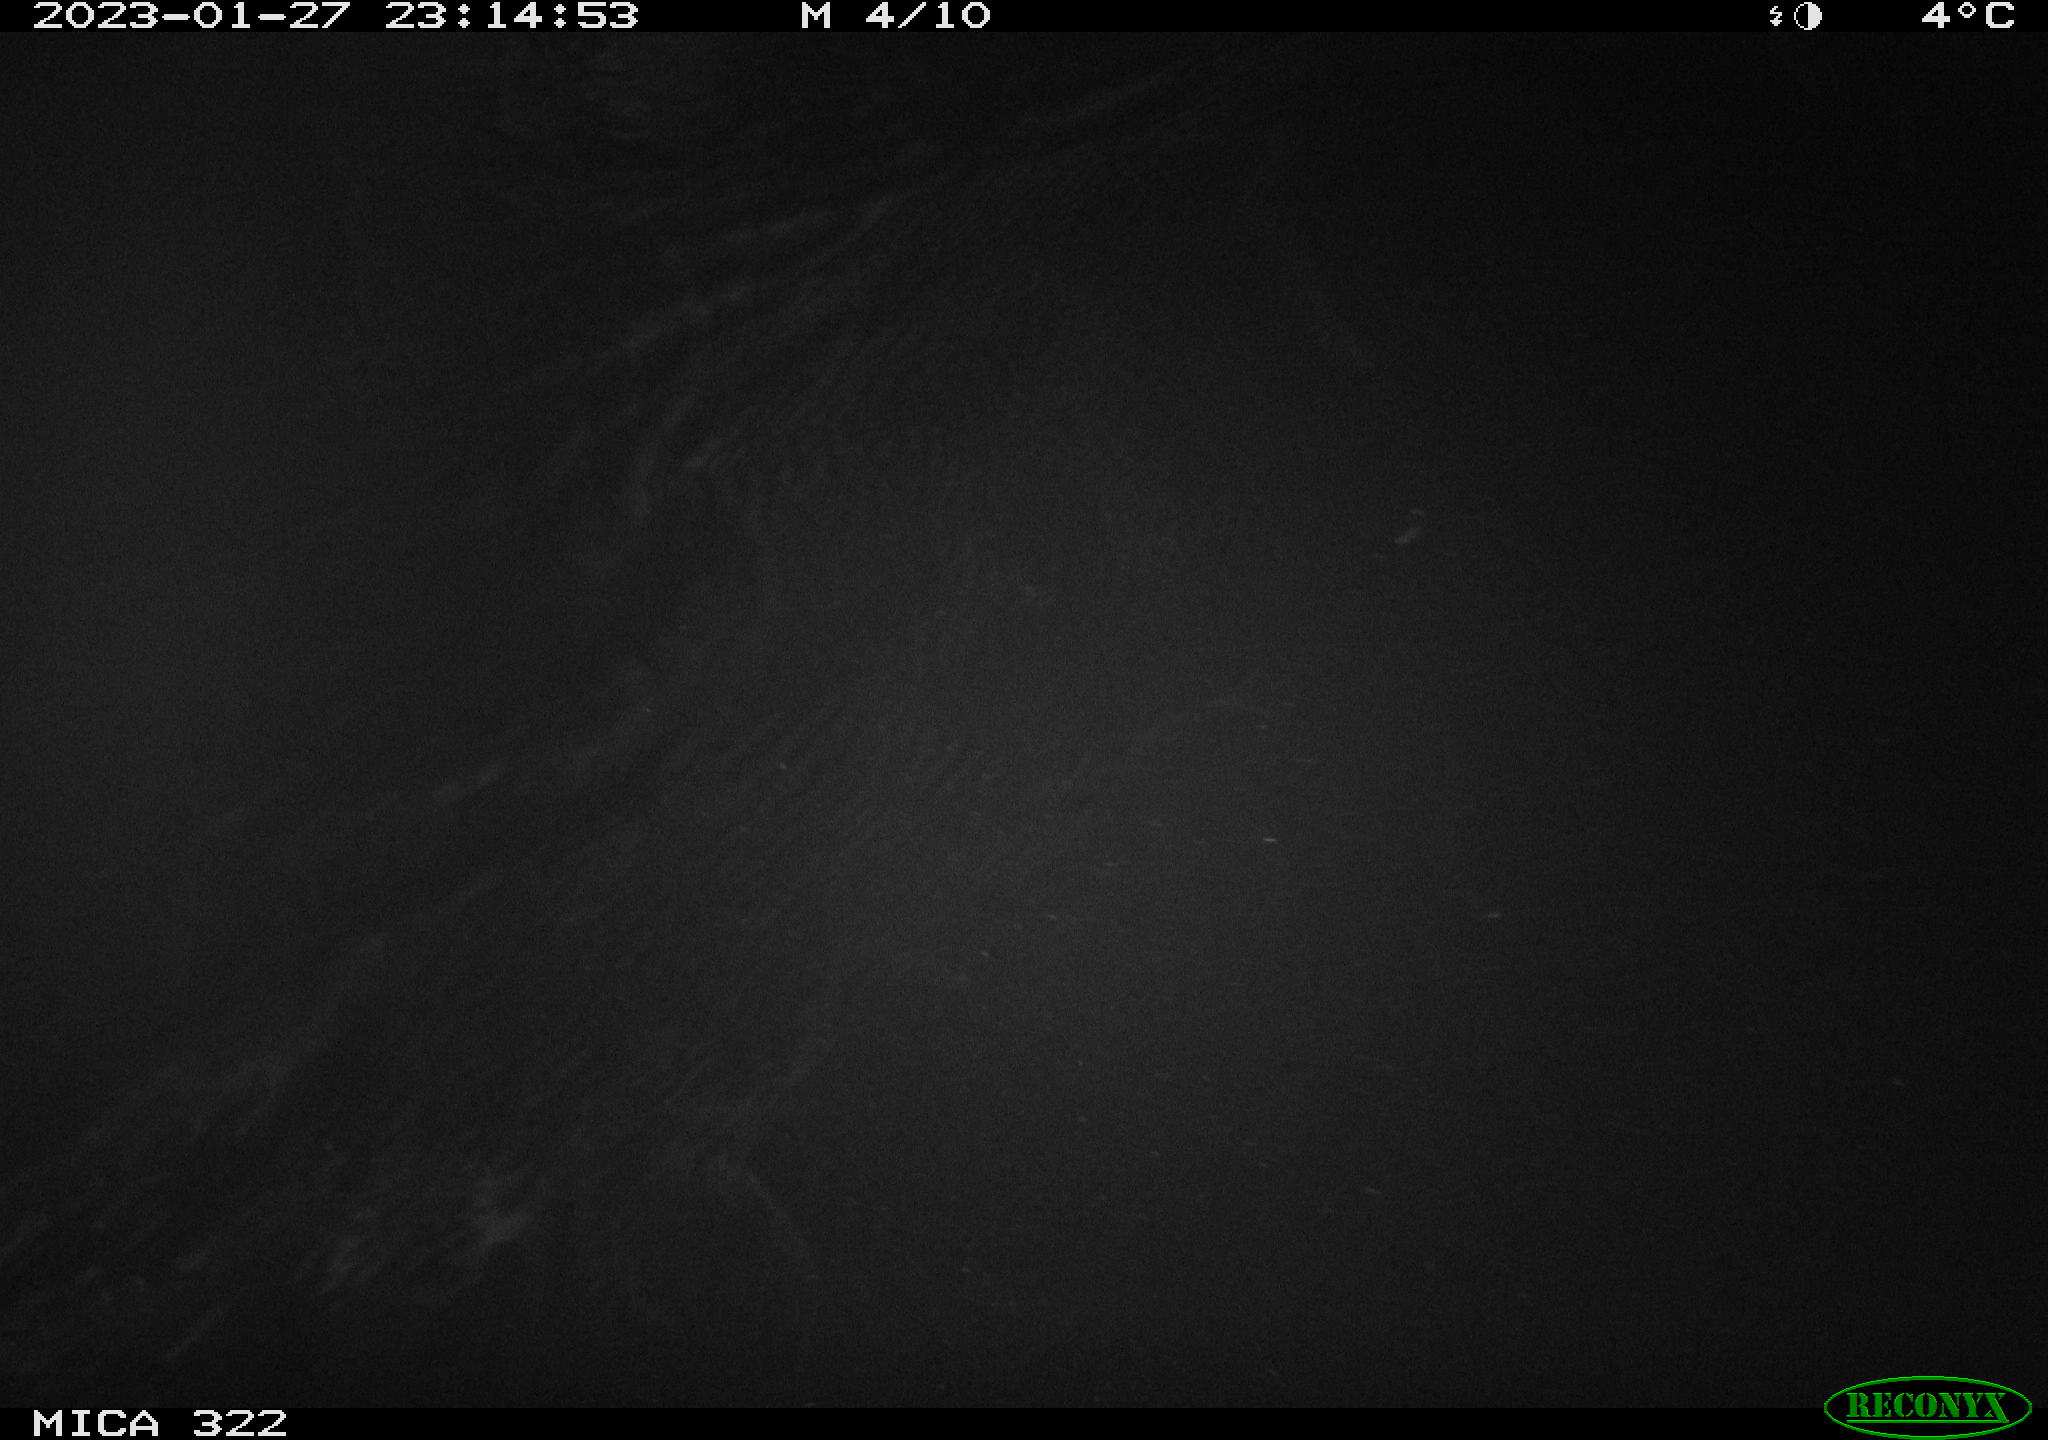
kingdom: Animalia
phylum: Chordata
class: Mammalia
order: Rodentia
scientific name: Rodentia
